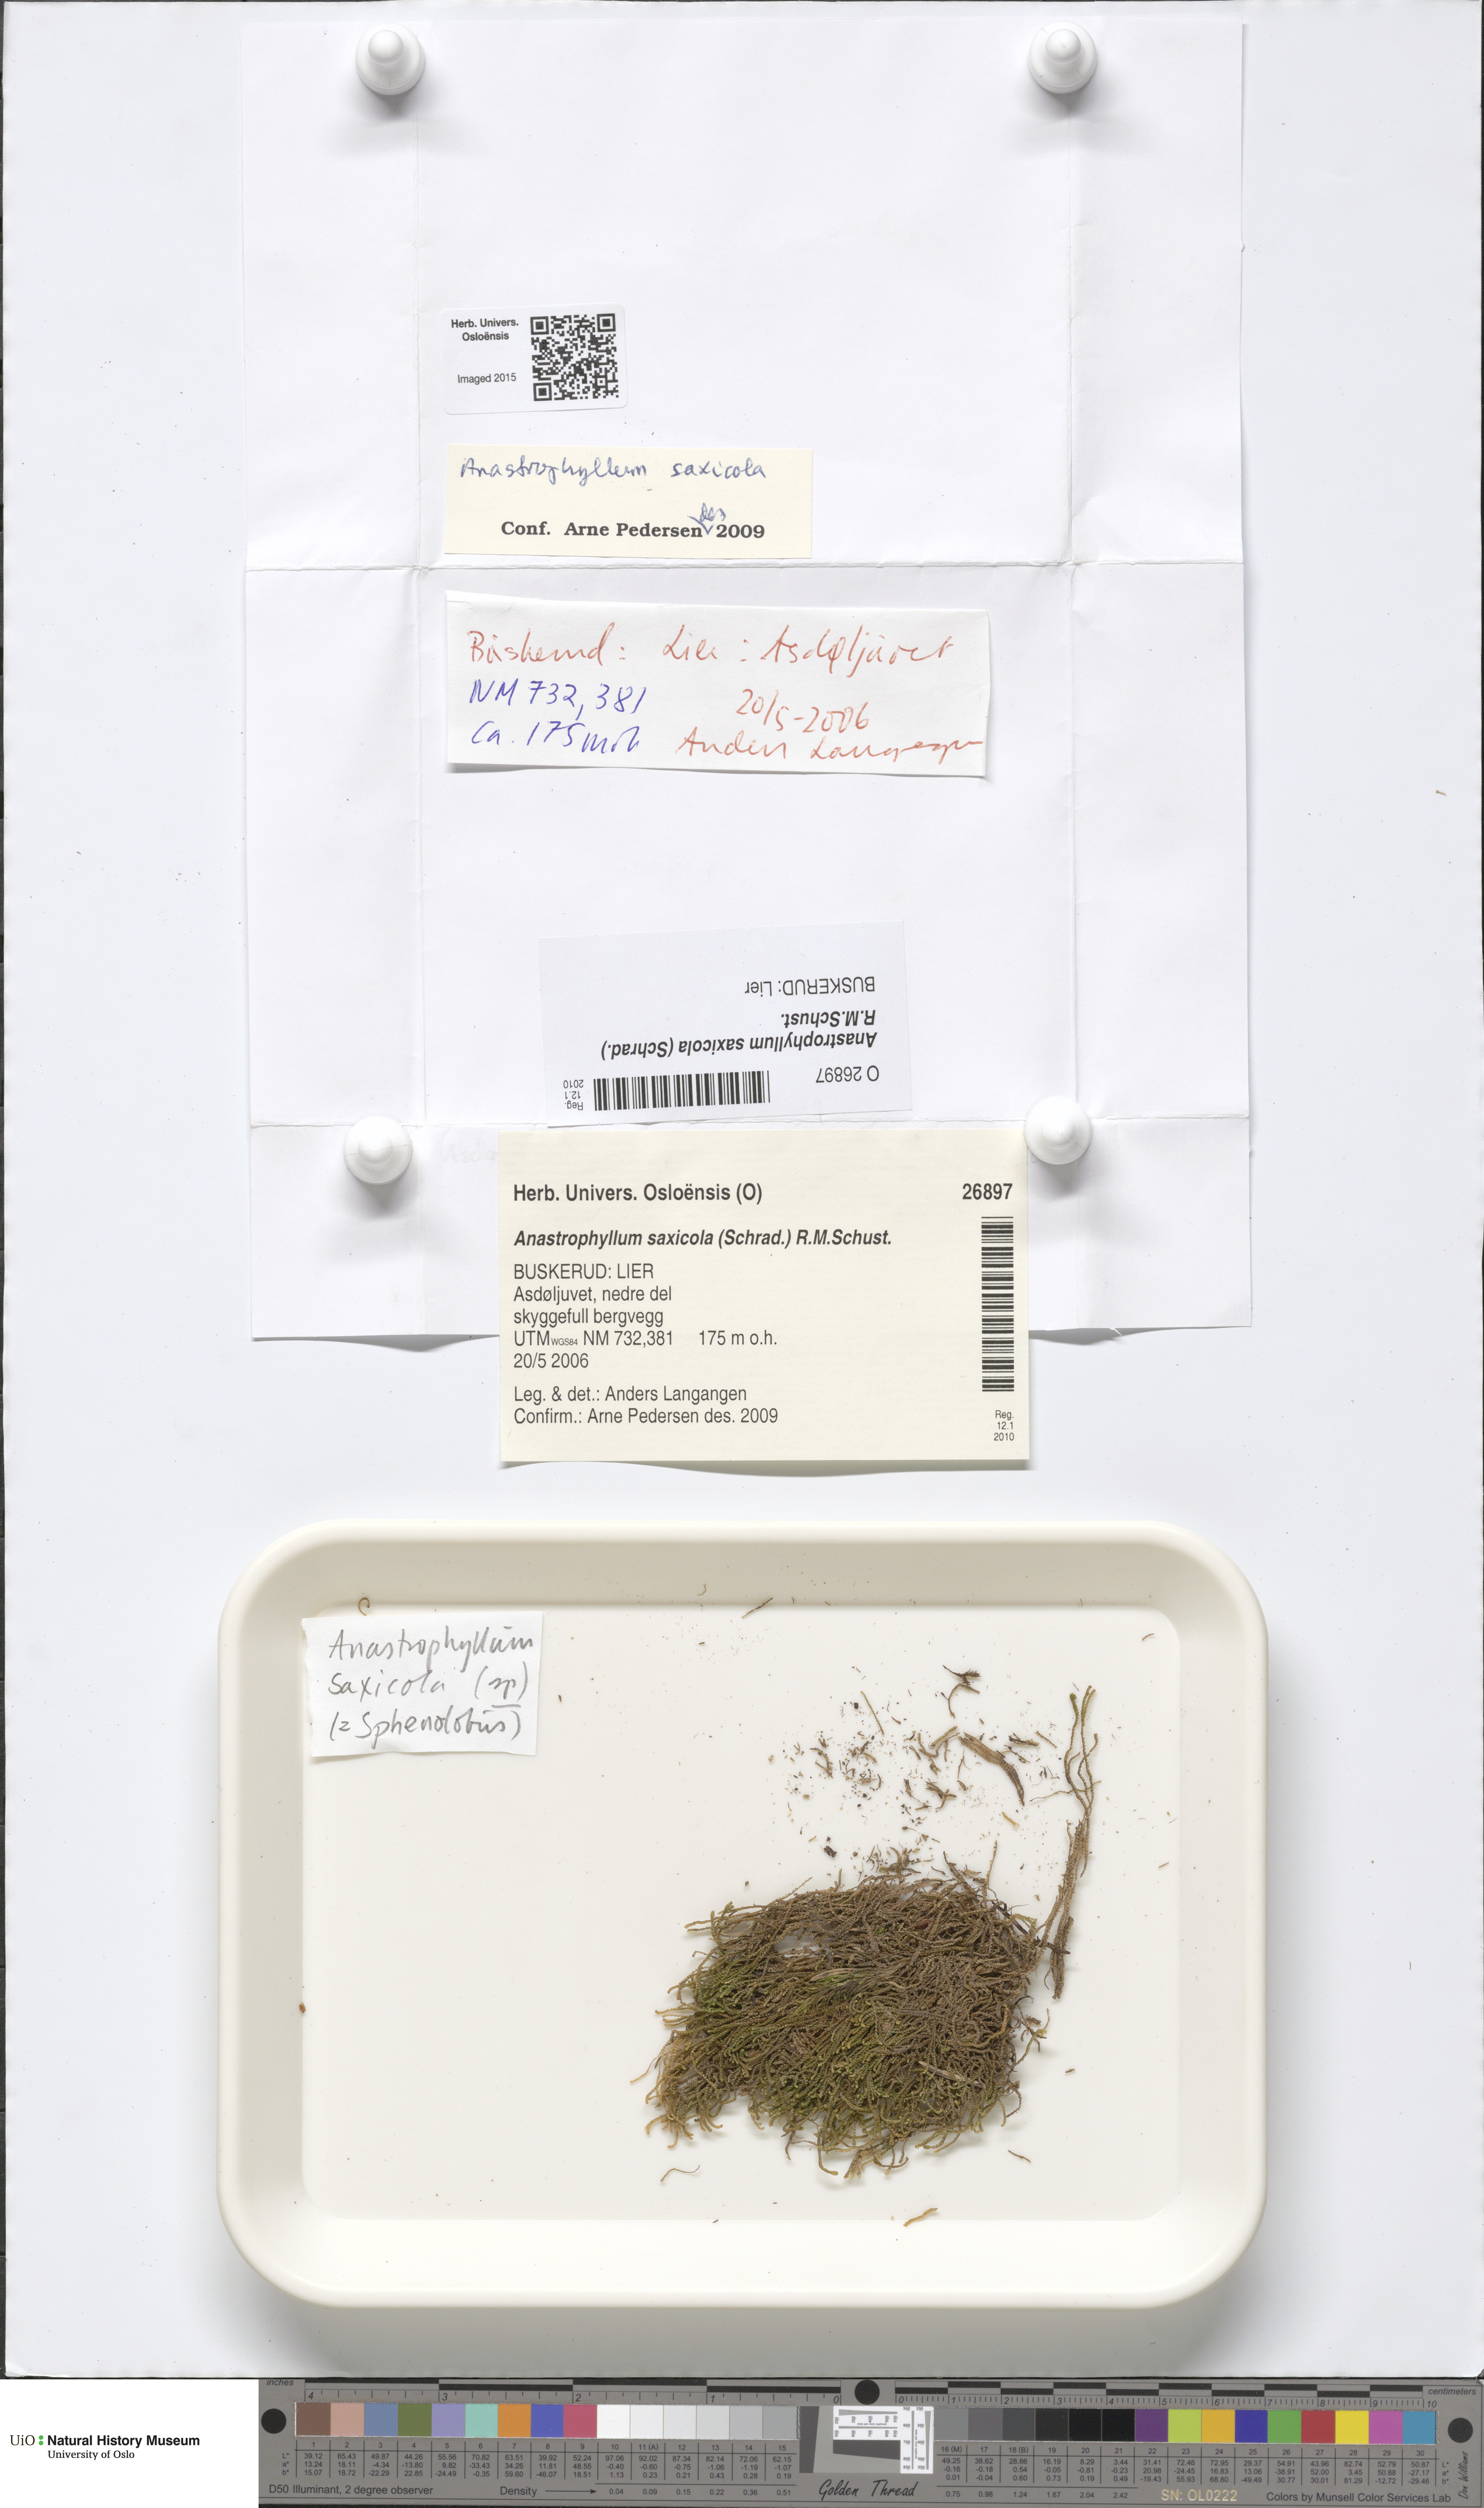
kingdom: Plantae
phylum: Marchantiophyta
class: Jungermanniopsida
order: Jungermanniales
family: Anastrophyllaceae
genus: Sphenolobus
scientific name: Sphenolobus saxicola
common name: Curled notchwort
